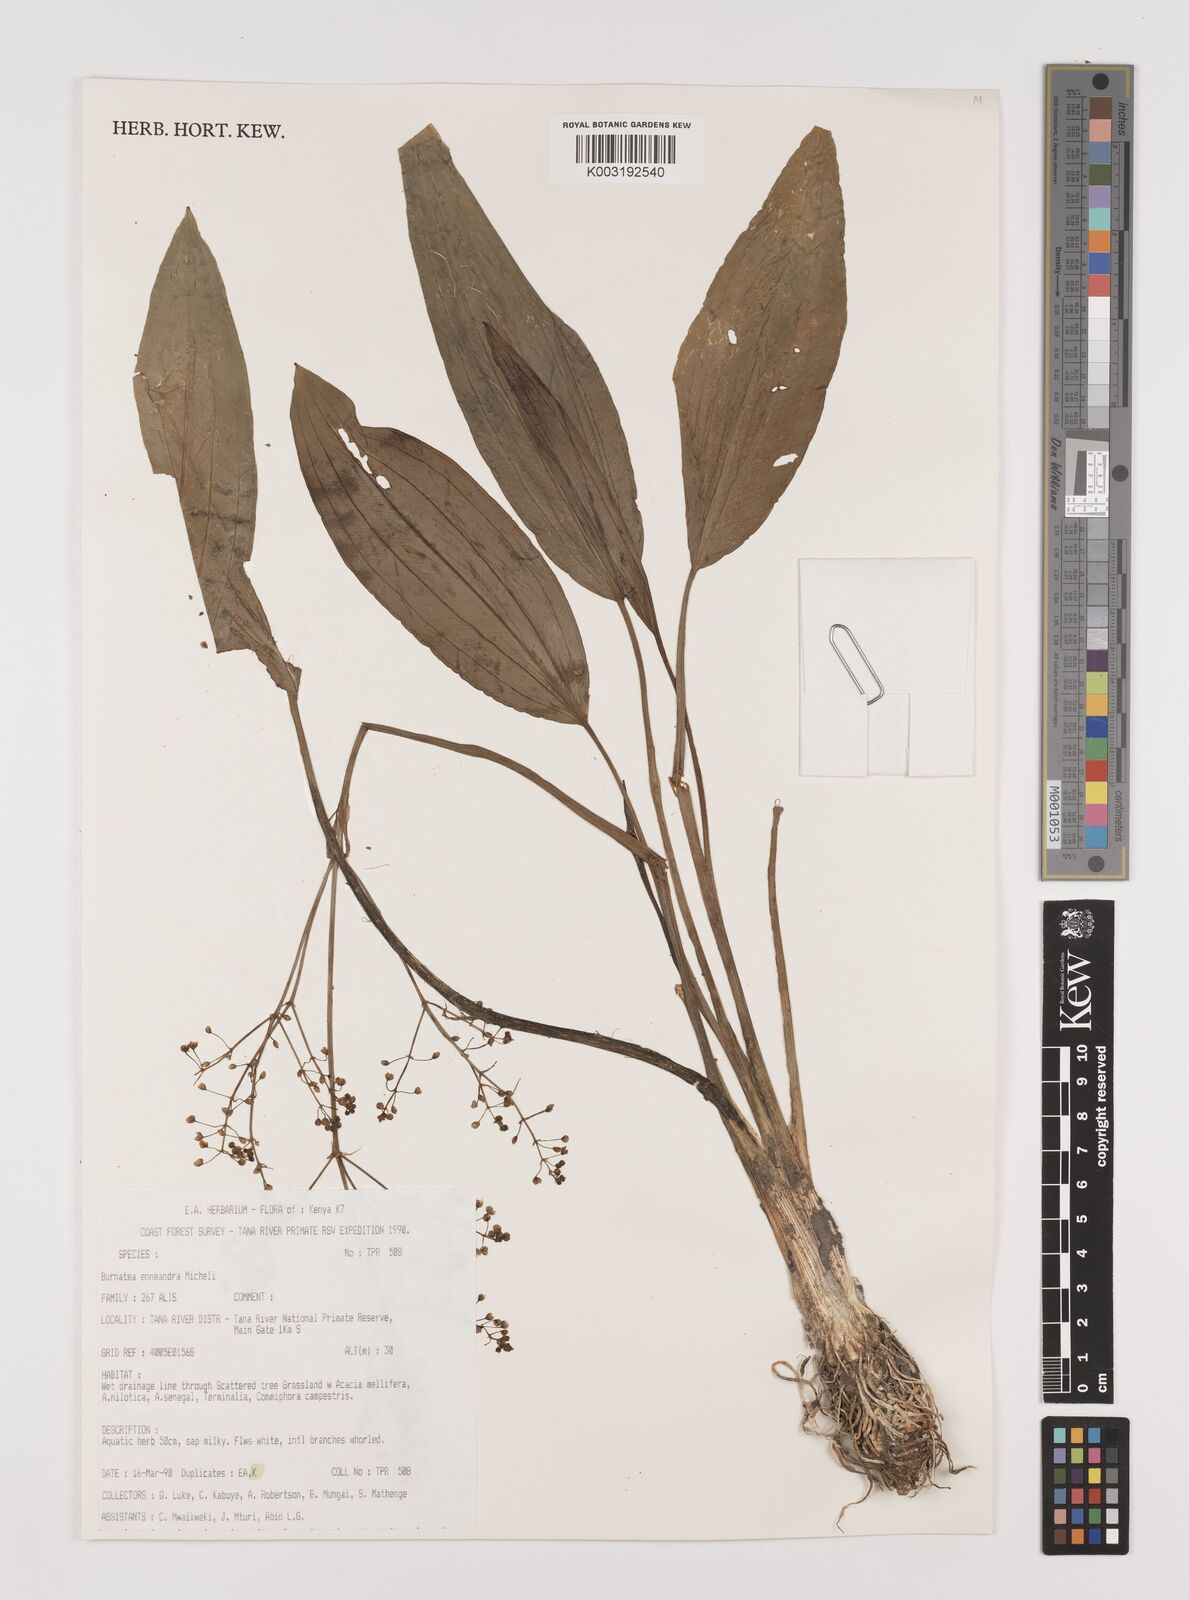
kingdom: Plantae
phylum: Tracheophyta
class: Liliopsida
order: Alismatales
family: Alismataceae
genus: Burnatia
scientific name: Burnatia enneandra
